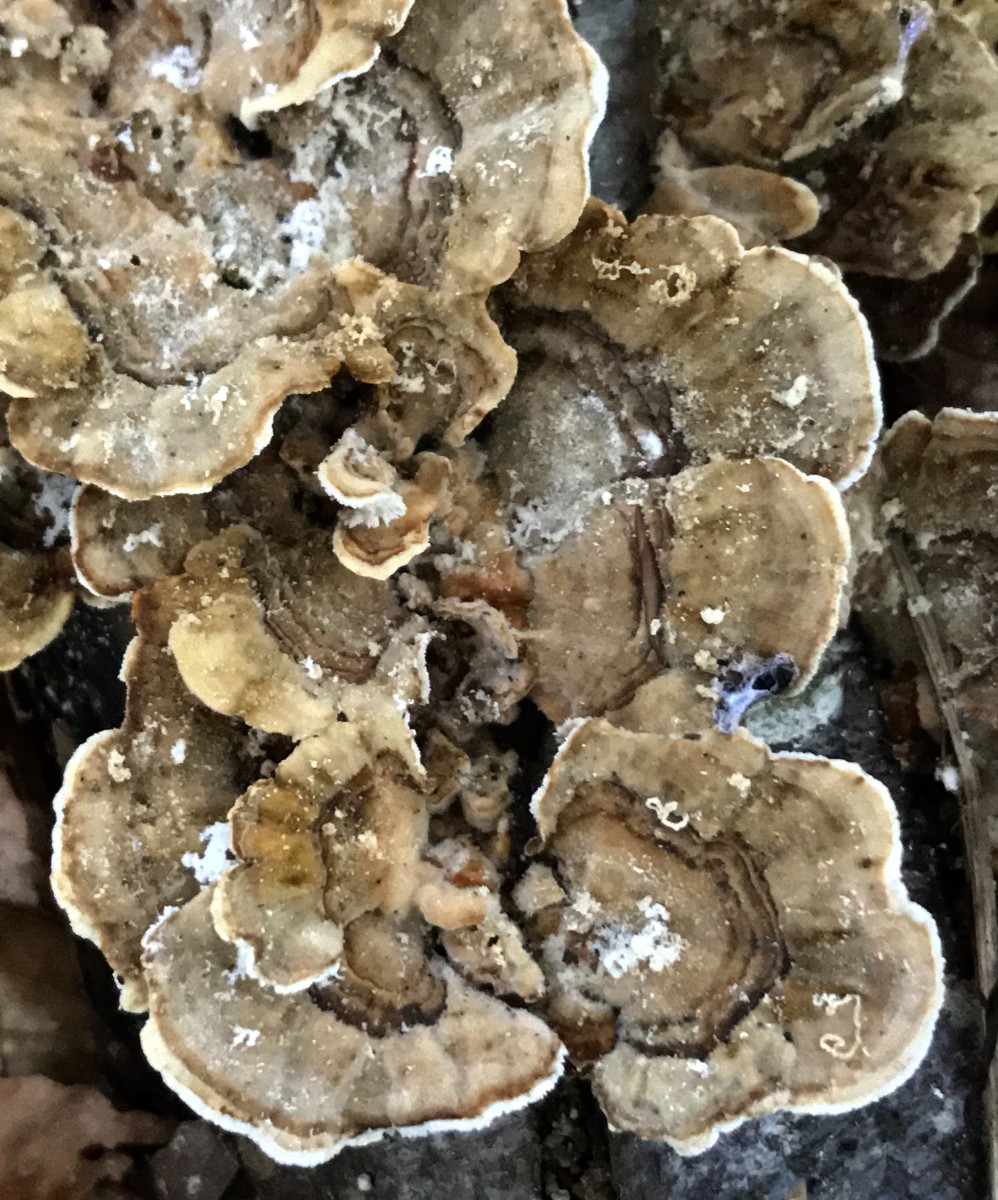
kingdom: Fungi
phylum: Basidiomycota
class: Agaricomycetes
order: Polyporales
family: Polyporaceae
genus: Trametes
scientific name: Trametes versicolor
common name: broget læderporesvamp
